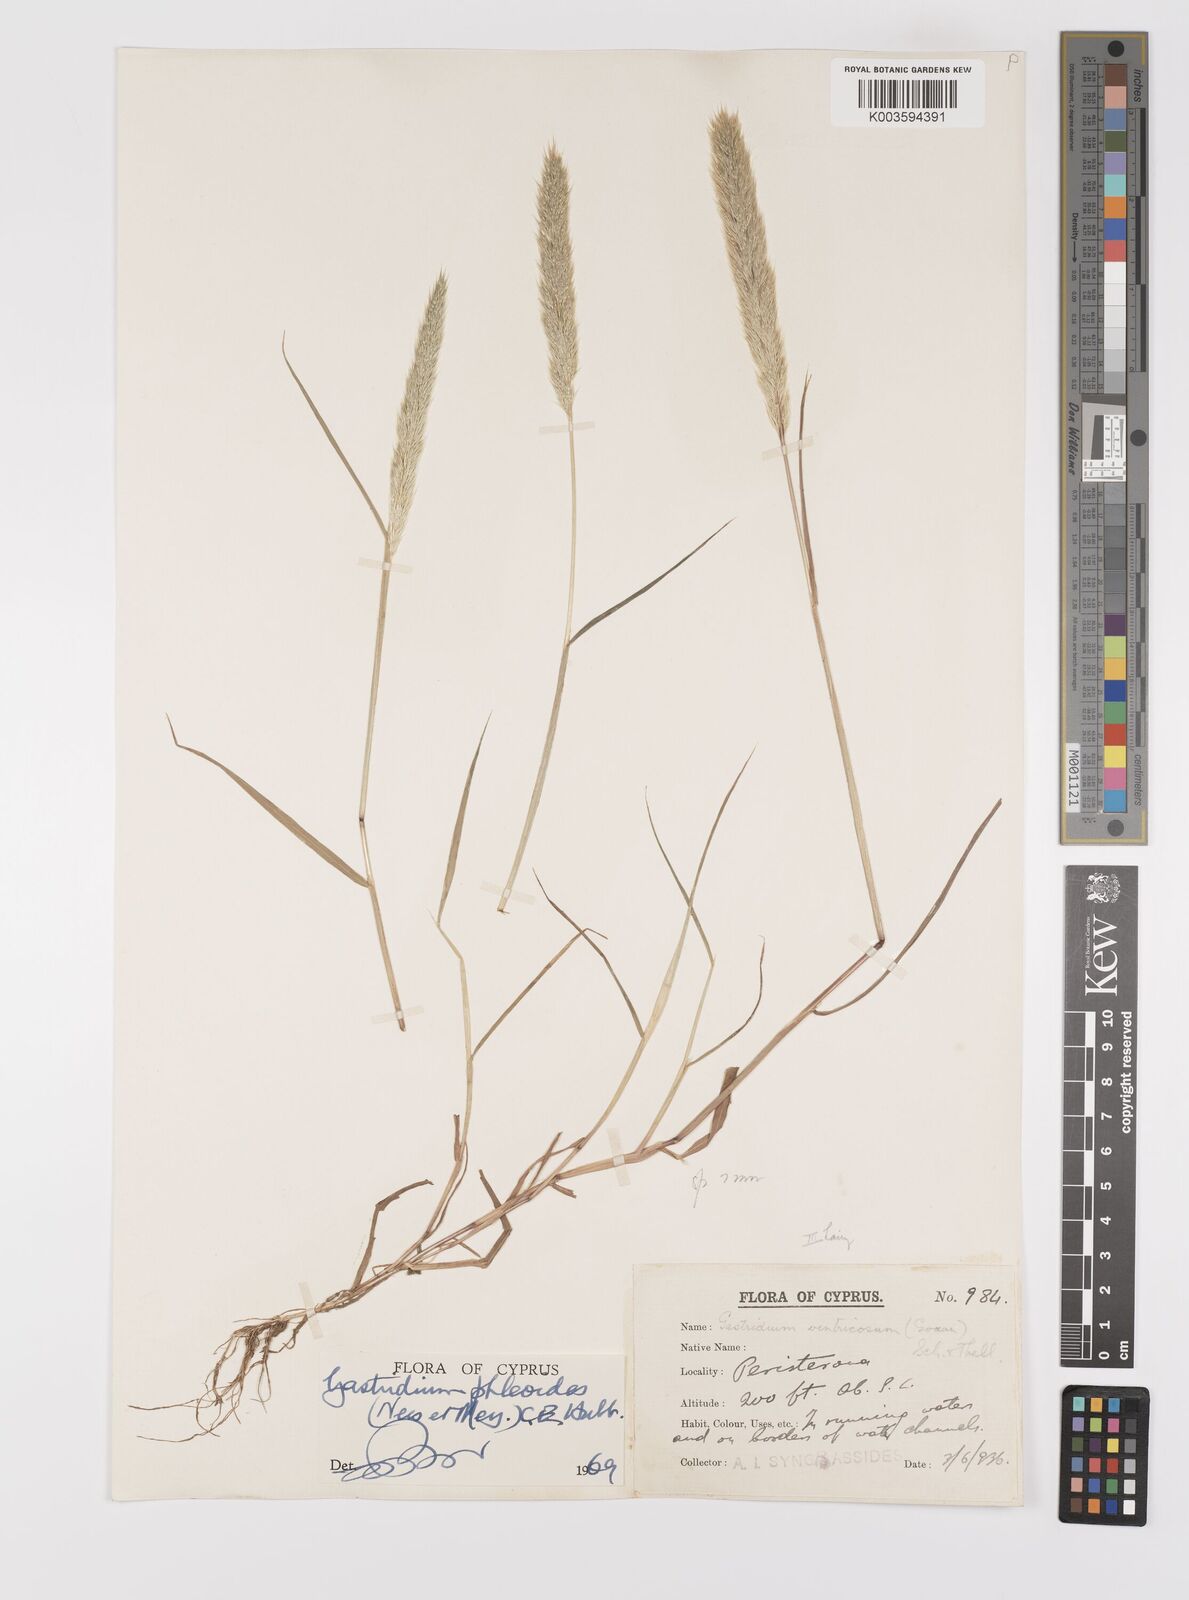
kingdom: Plantae
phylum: Tracheophyta
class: Liliopsida
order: Poales
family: Poaceae
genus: Gastridium
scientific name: Gastridium phleoides
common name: Nit grass
